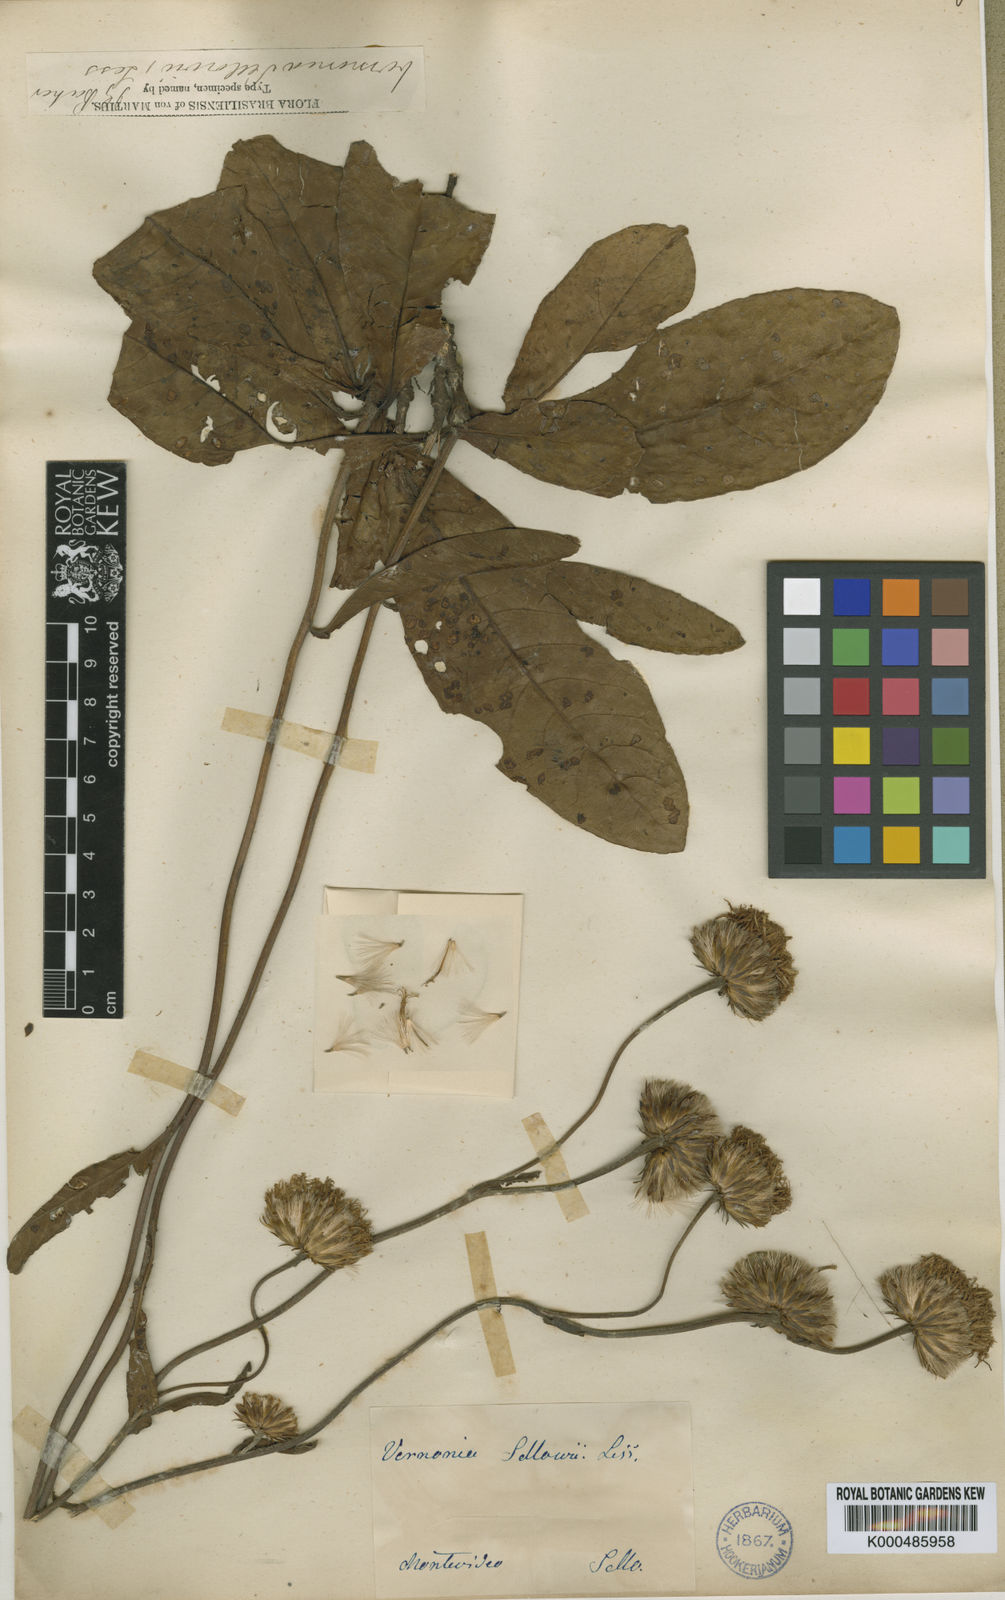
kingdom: Plantae
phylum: Tracheophyta
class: Magnoliopsida
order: Asterales
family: Asteraceae
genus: Lessingianthus
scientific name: Lessingianthus sellowii
